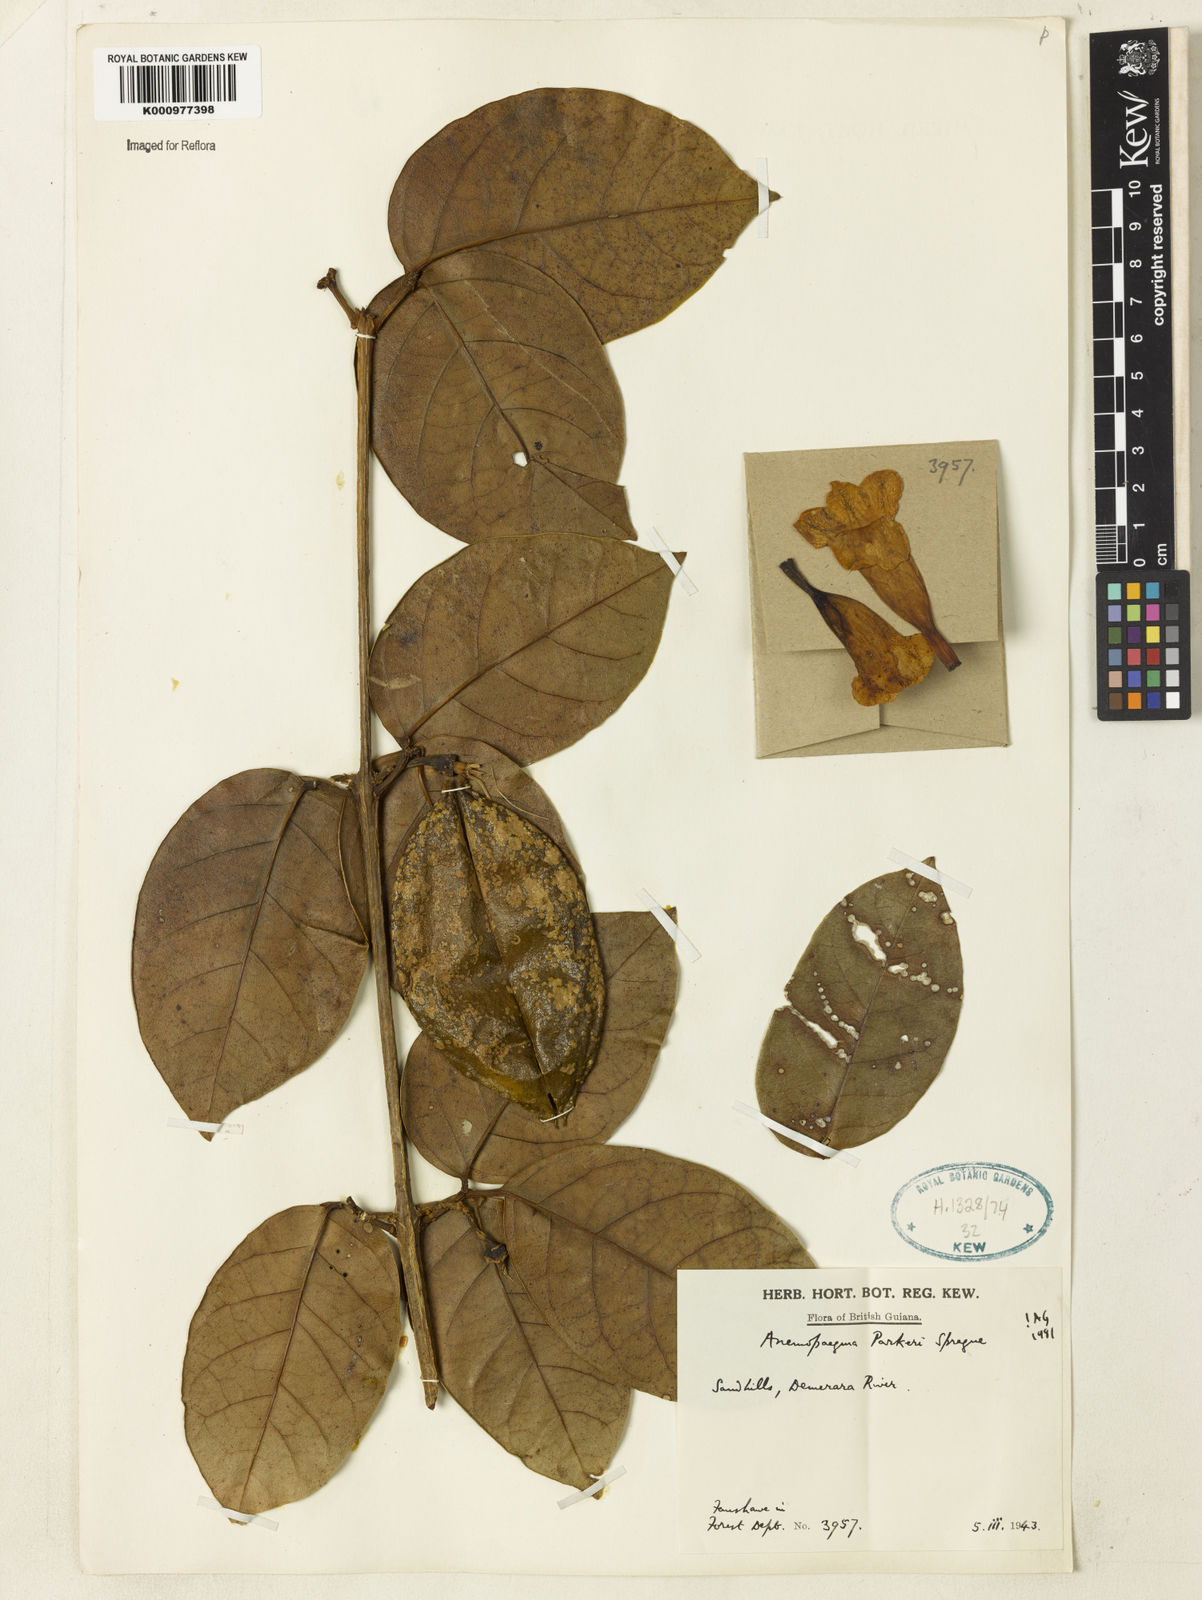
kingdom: Plantae
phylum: Tracheophyta
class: Magnoliopsida
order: Lamiales
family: Bignoniaceae
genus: Anemopaegma
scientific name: Anemopaegma parkeri
